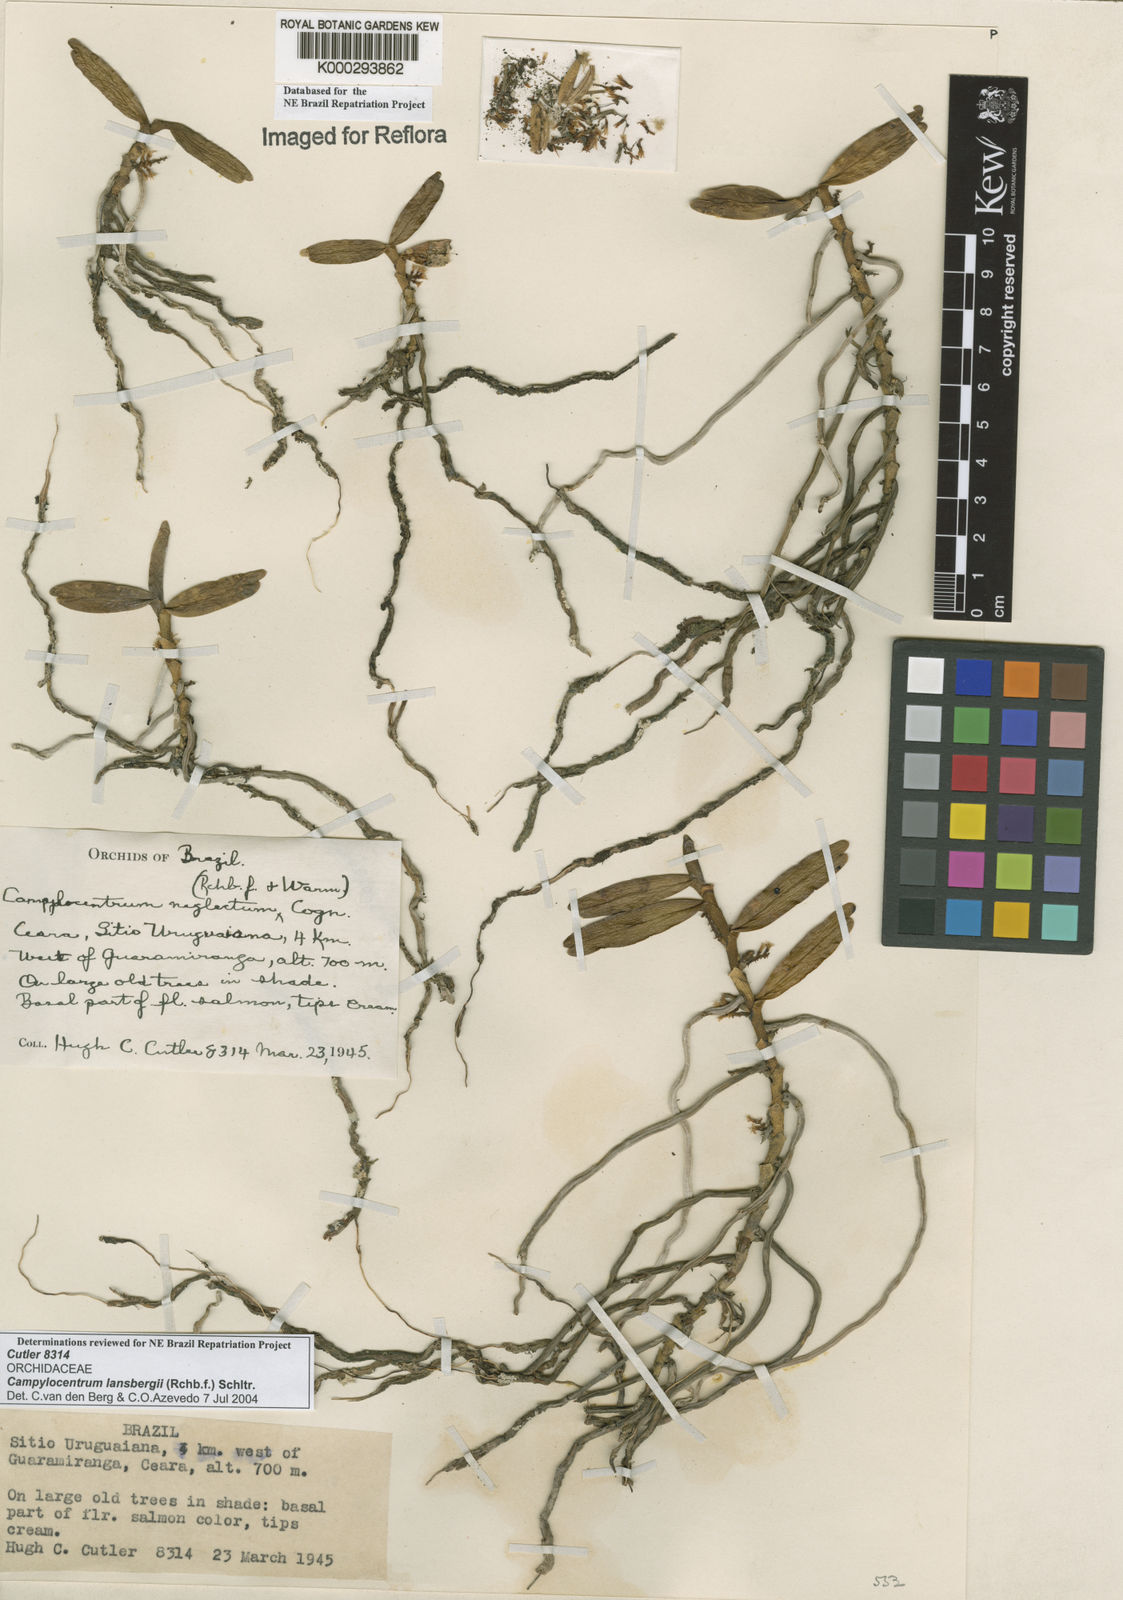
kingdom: Plantae
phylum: Tracheophyta
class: Liliopsida
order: Asparagales
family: Orchidaceae
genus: Campylocentrum
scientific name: Campylocentrum lansbergii
